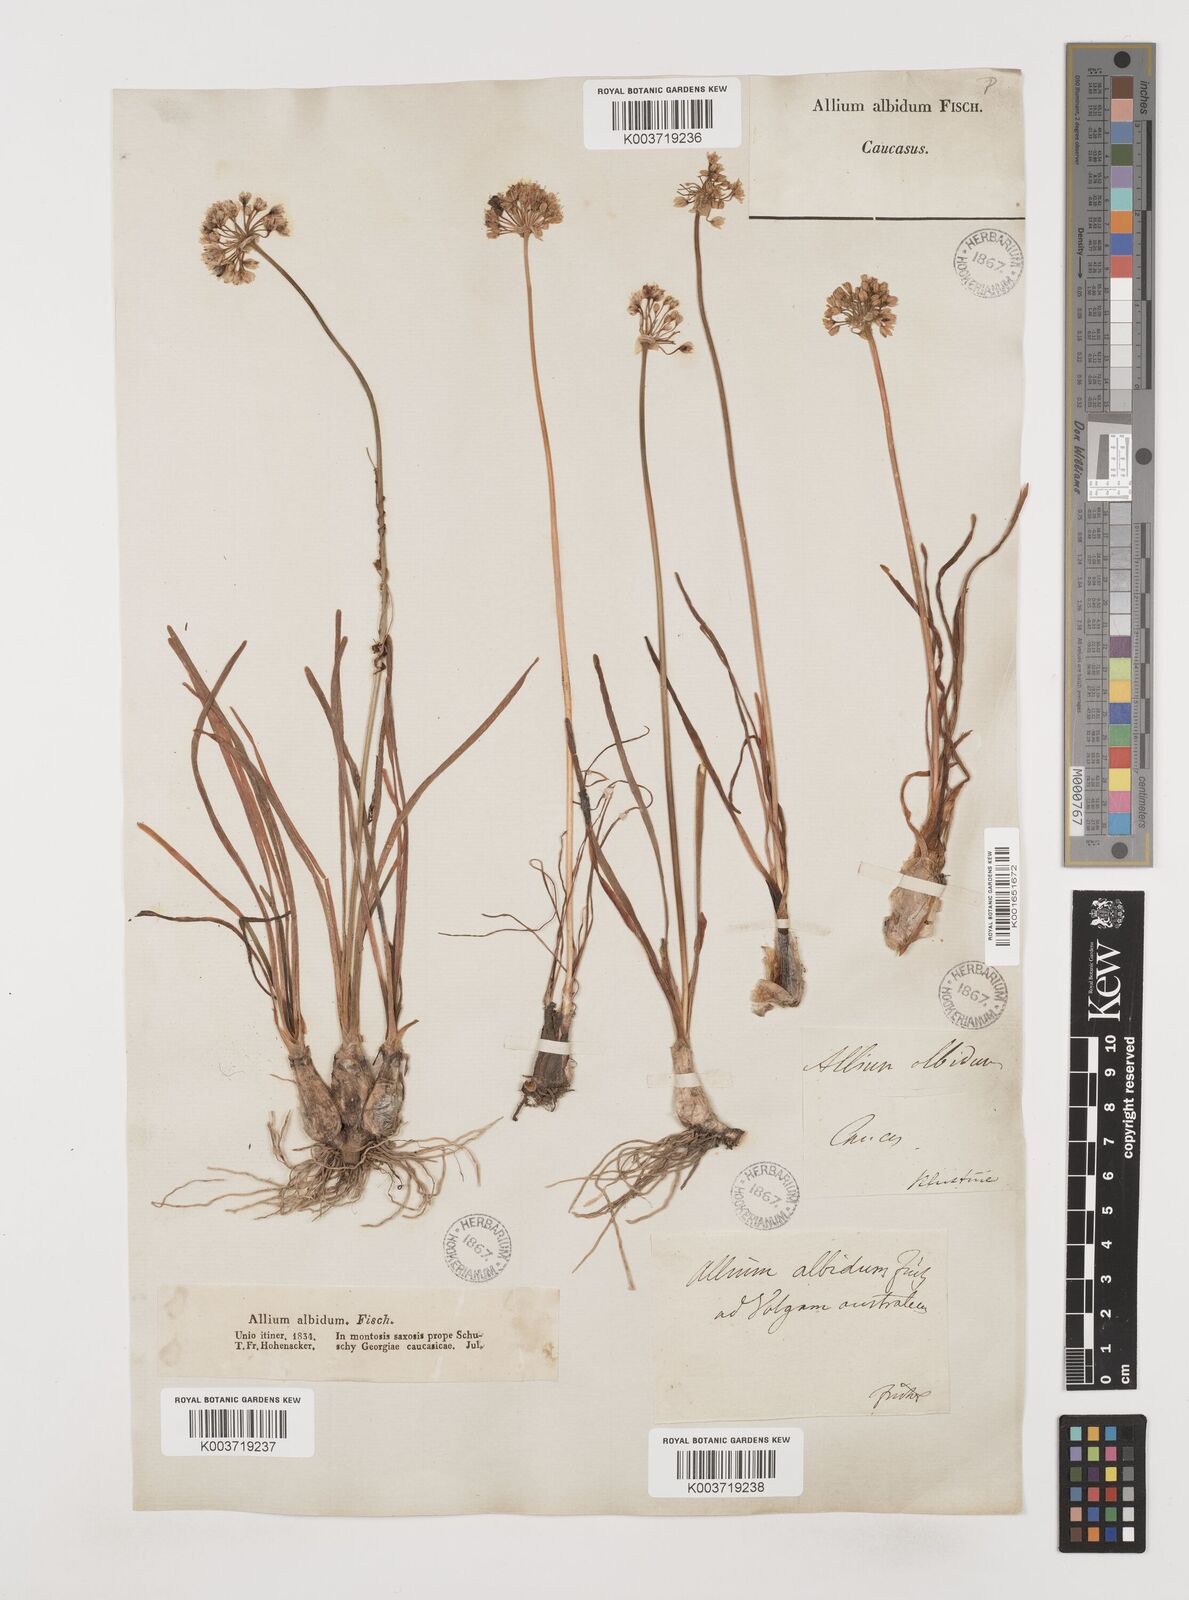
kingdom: Plantae
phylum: Tracheophyta
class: Liliopsida
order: Asparagales
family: Amaryllidaceae
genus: Allium
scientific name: Allium denudatum
